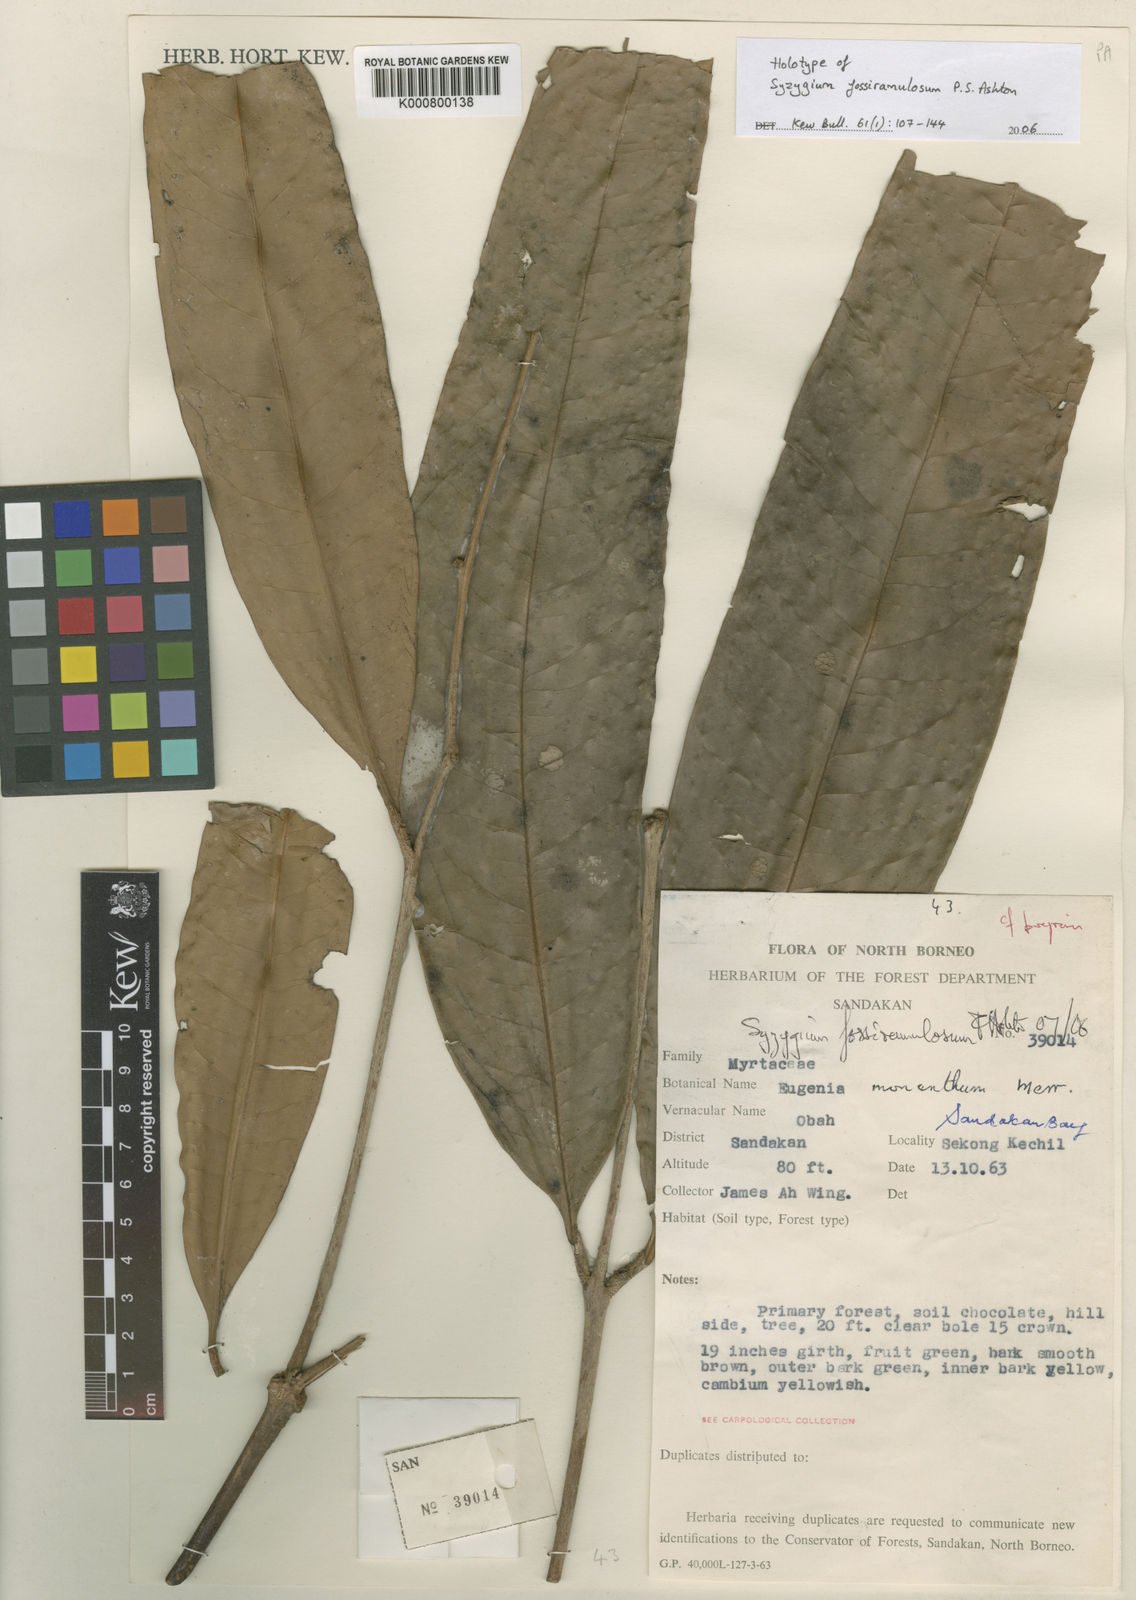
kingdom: Plantae
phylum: Tracheophyta
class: Magnoliopsida
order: Myrtales
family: Myrtaceae
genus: Syzygium
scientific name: Syzygium fossiramulosum
